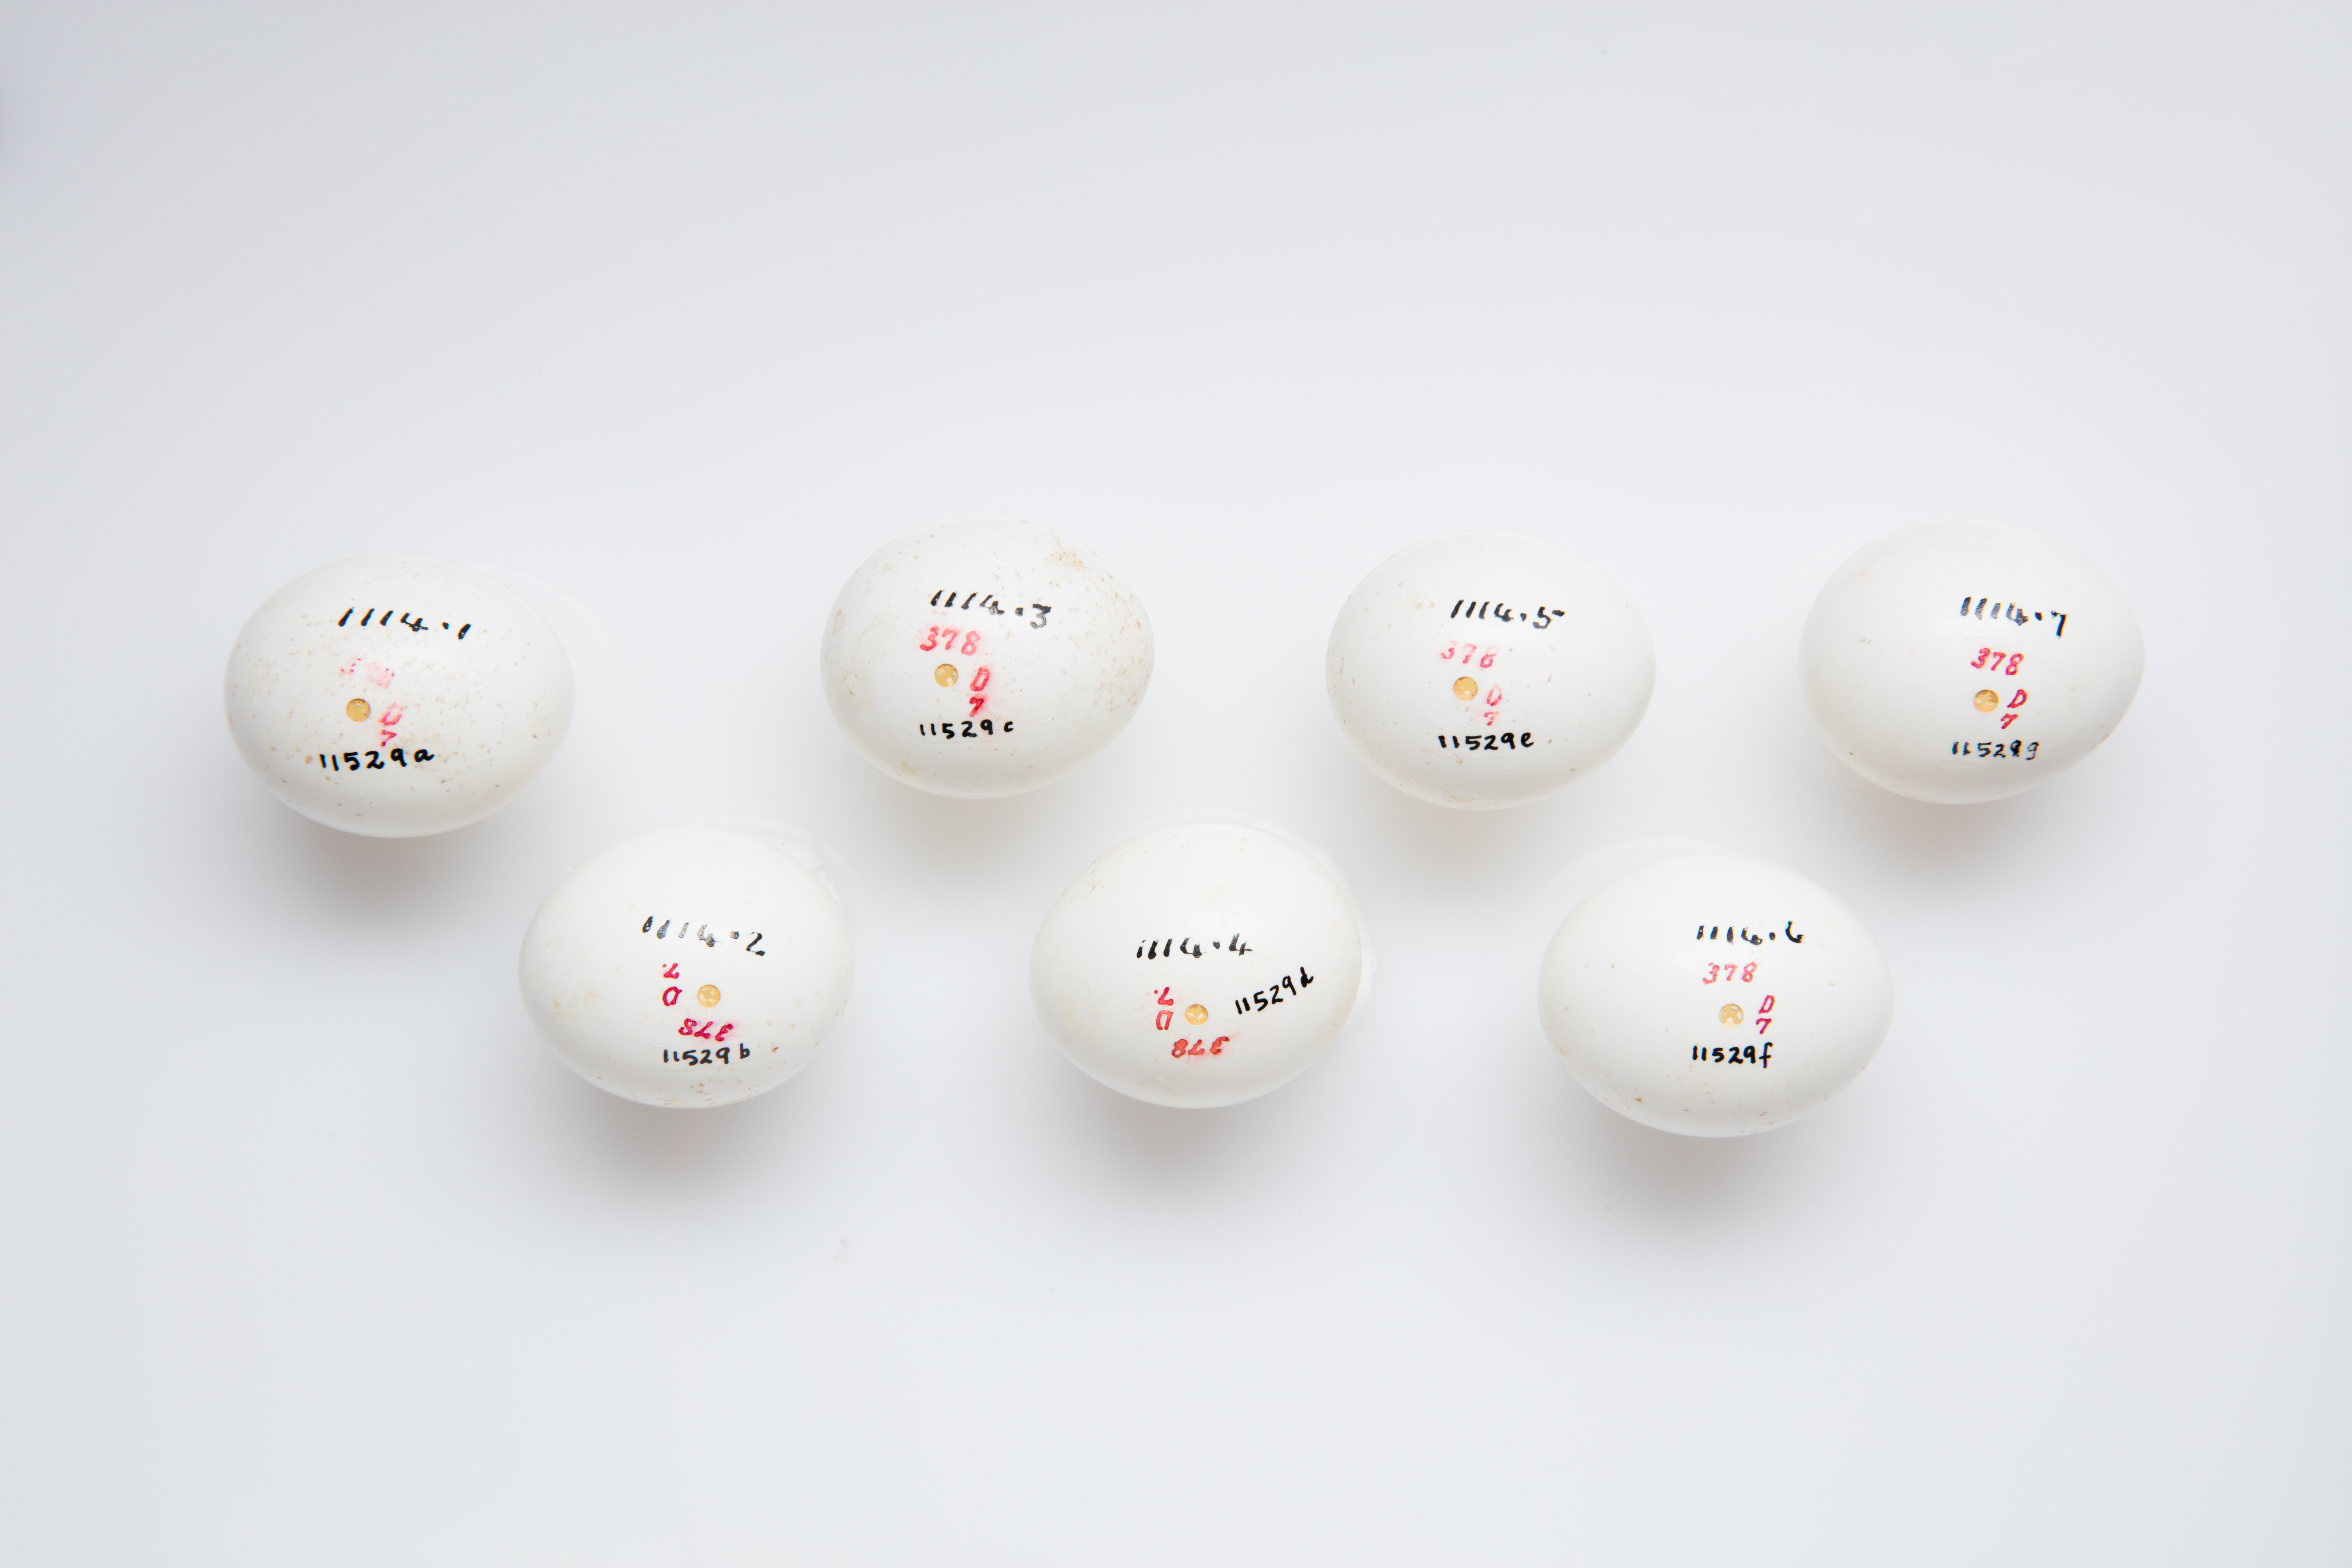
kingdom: Animalia
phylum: Chordata
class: Aves
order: Strigiformes
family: Strigidae
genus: Athene
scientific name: Athene cunicularia
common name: Burrowing owl
